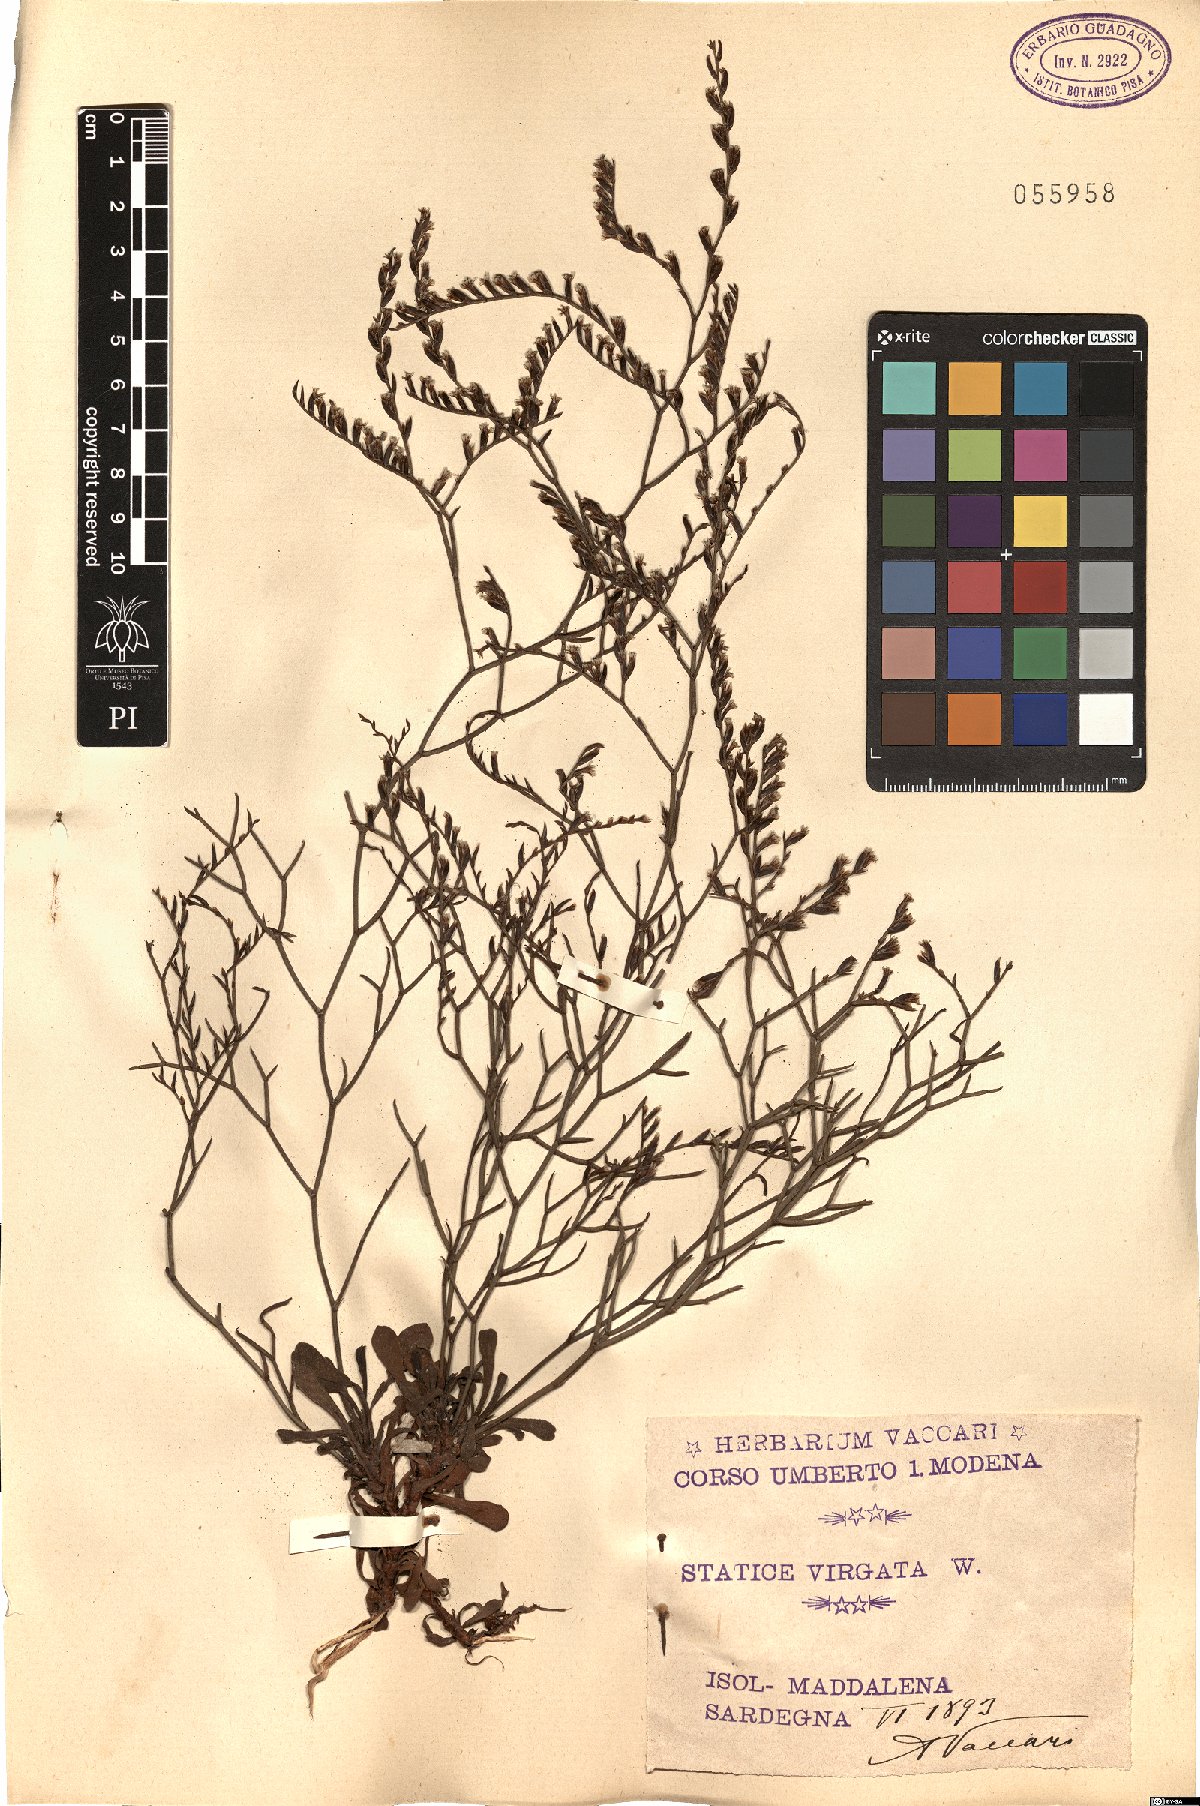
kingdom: Plantae
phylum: Tracheophyta
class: Magnoliopsida
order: Caryophyllales
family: Plumbaginaceae
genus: Limonium
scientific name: Limonium virgatum
